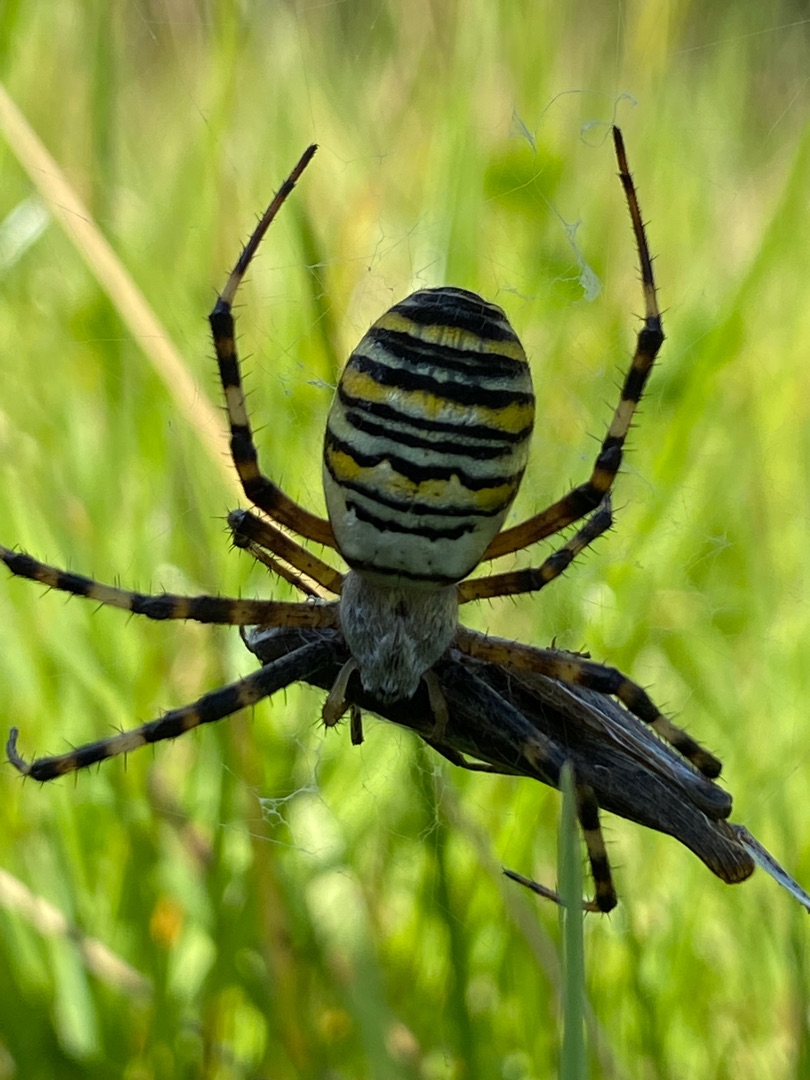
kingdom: Animalia
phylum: Arthropoda
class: Arachnida
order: Araneae
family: Araneidae
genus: Argiope
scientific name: Argiope bruennichi
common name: Hvepseedderkop
